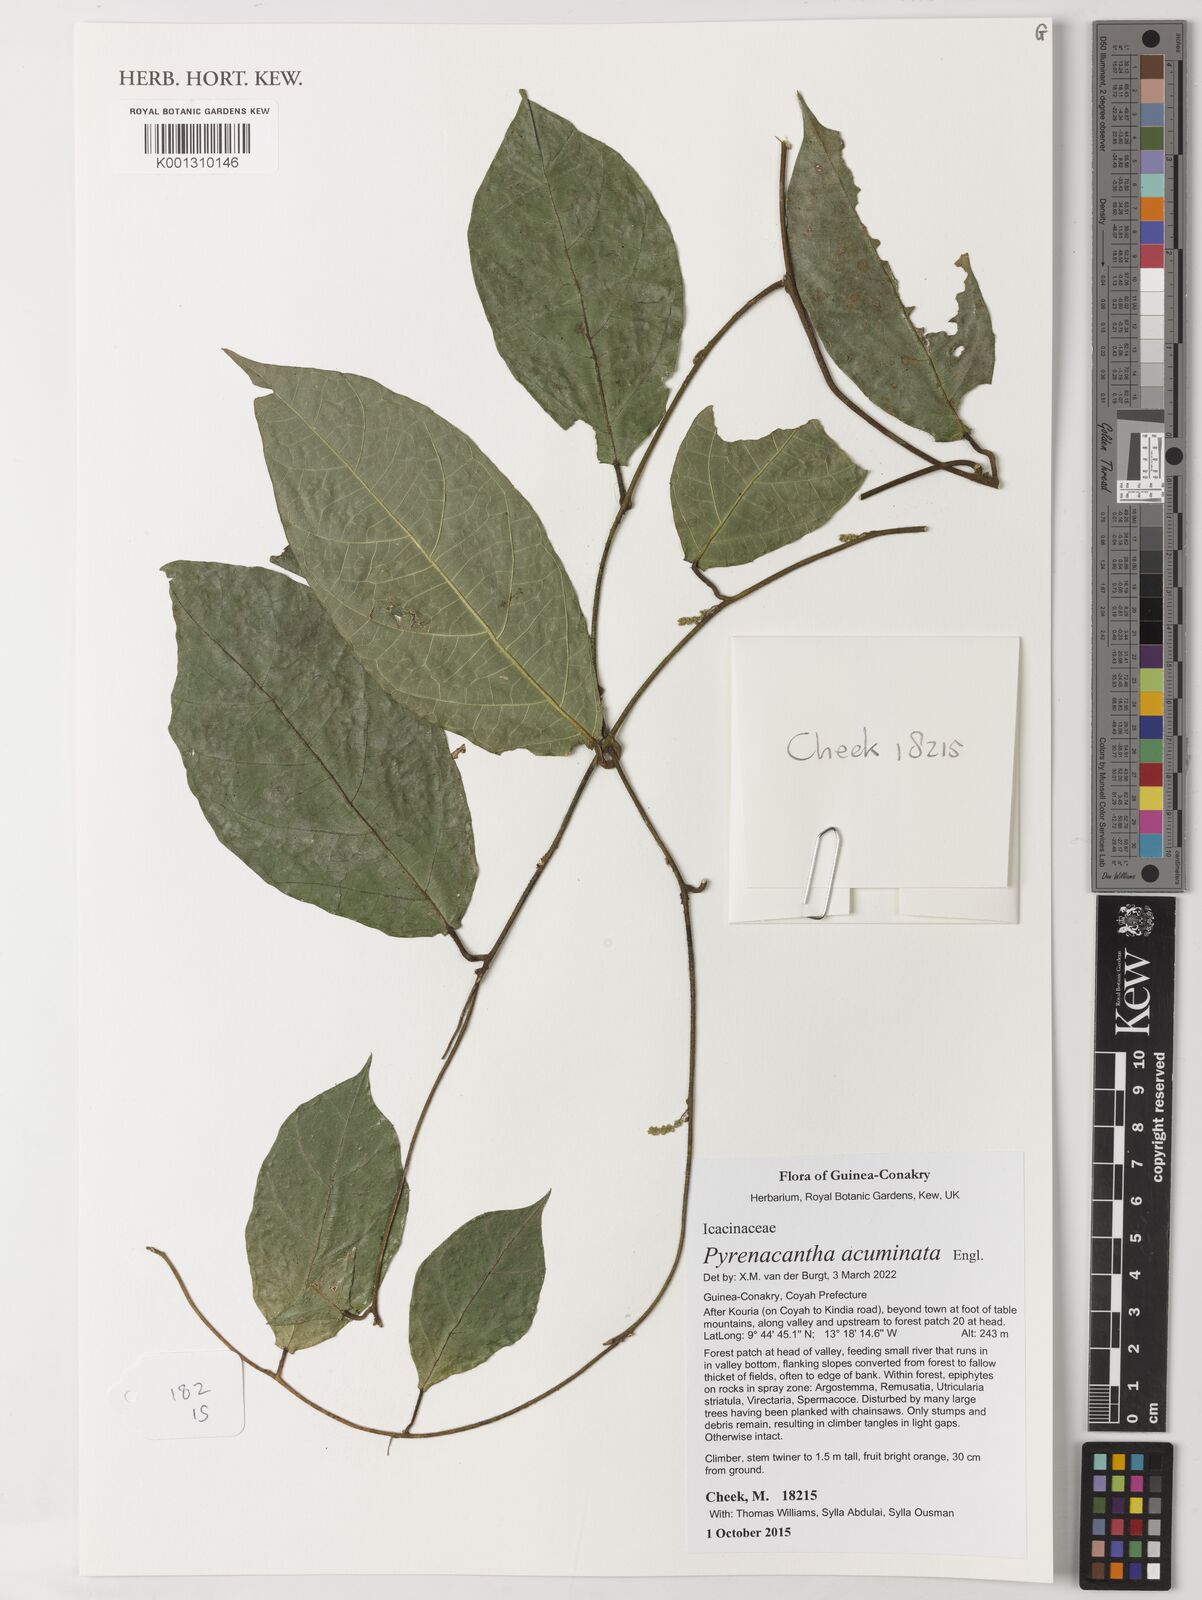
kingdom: Plantae
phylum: Tracheophyta
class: Magnoliopsida
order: Icacinales
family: Icacinaceae
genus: Pyrenacantha
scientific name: Pyrenacantha acuminata
